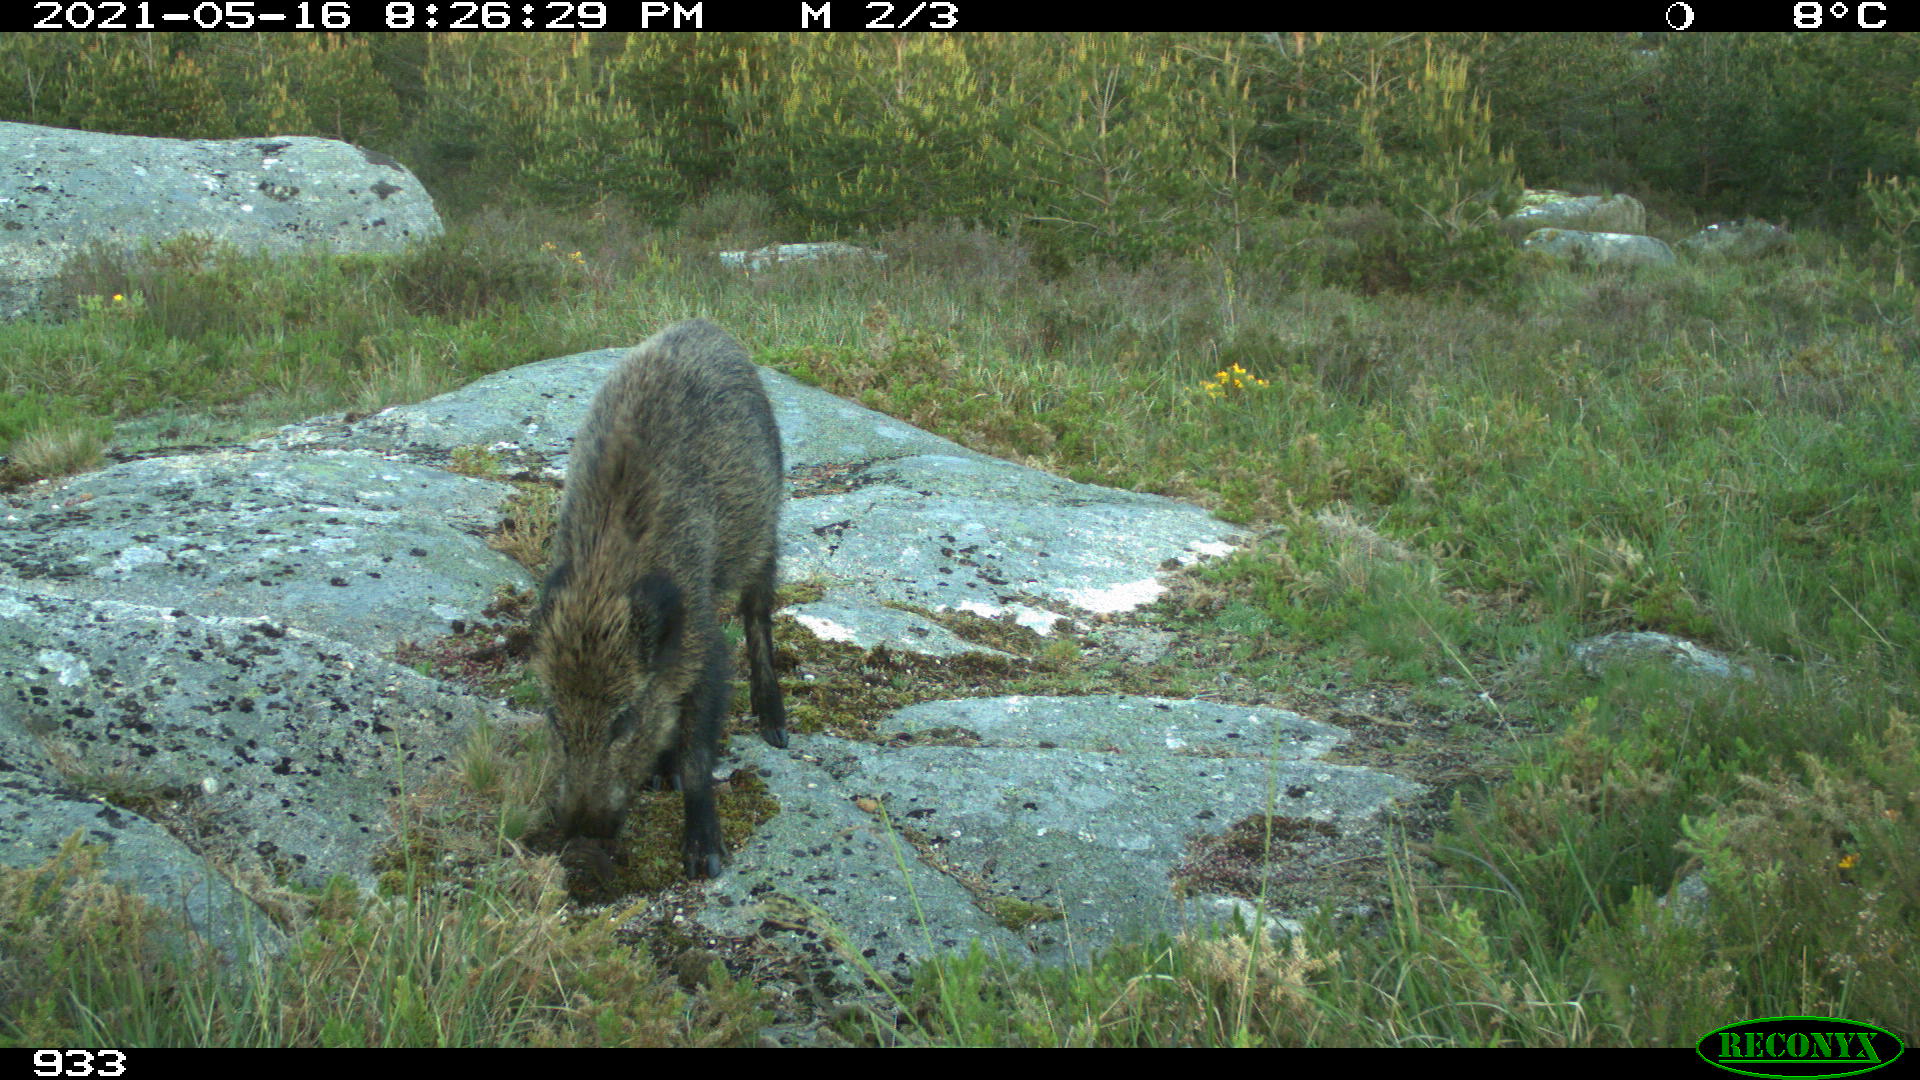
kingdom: Animalia
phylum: Chordata
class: Mammalia
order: Artiodactyla
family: Suidae
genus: Sus
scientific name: Sus scrofa
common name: Wild boar
